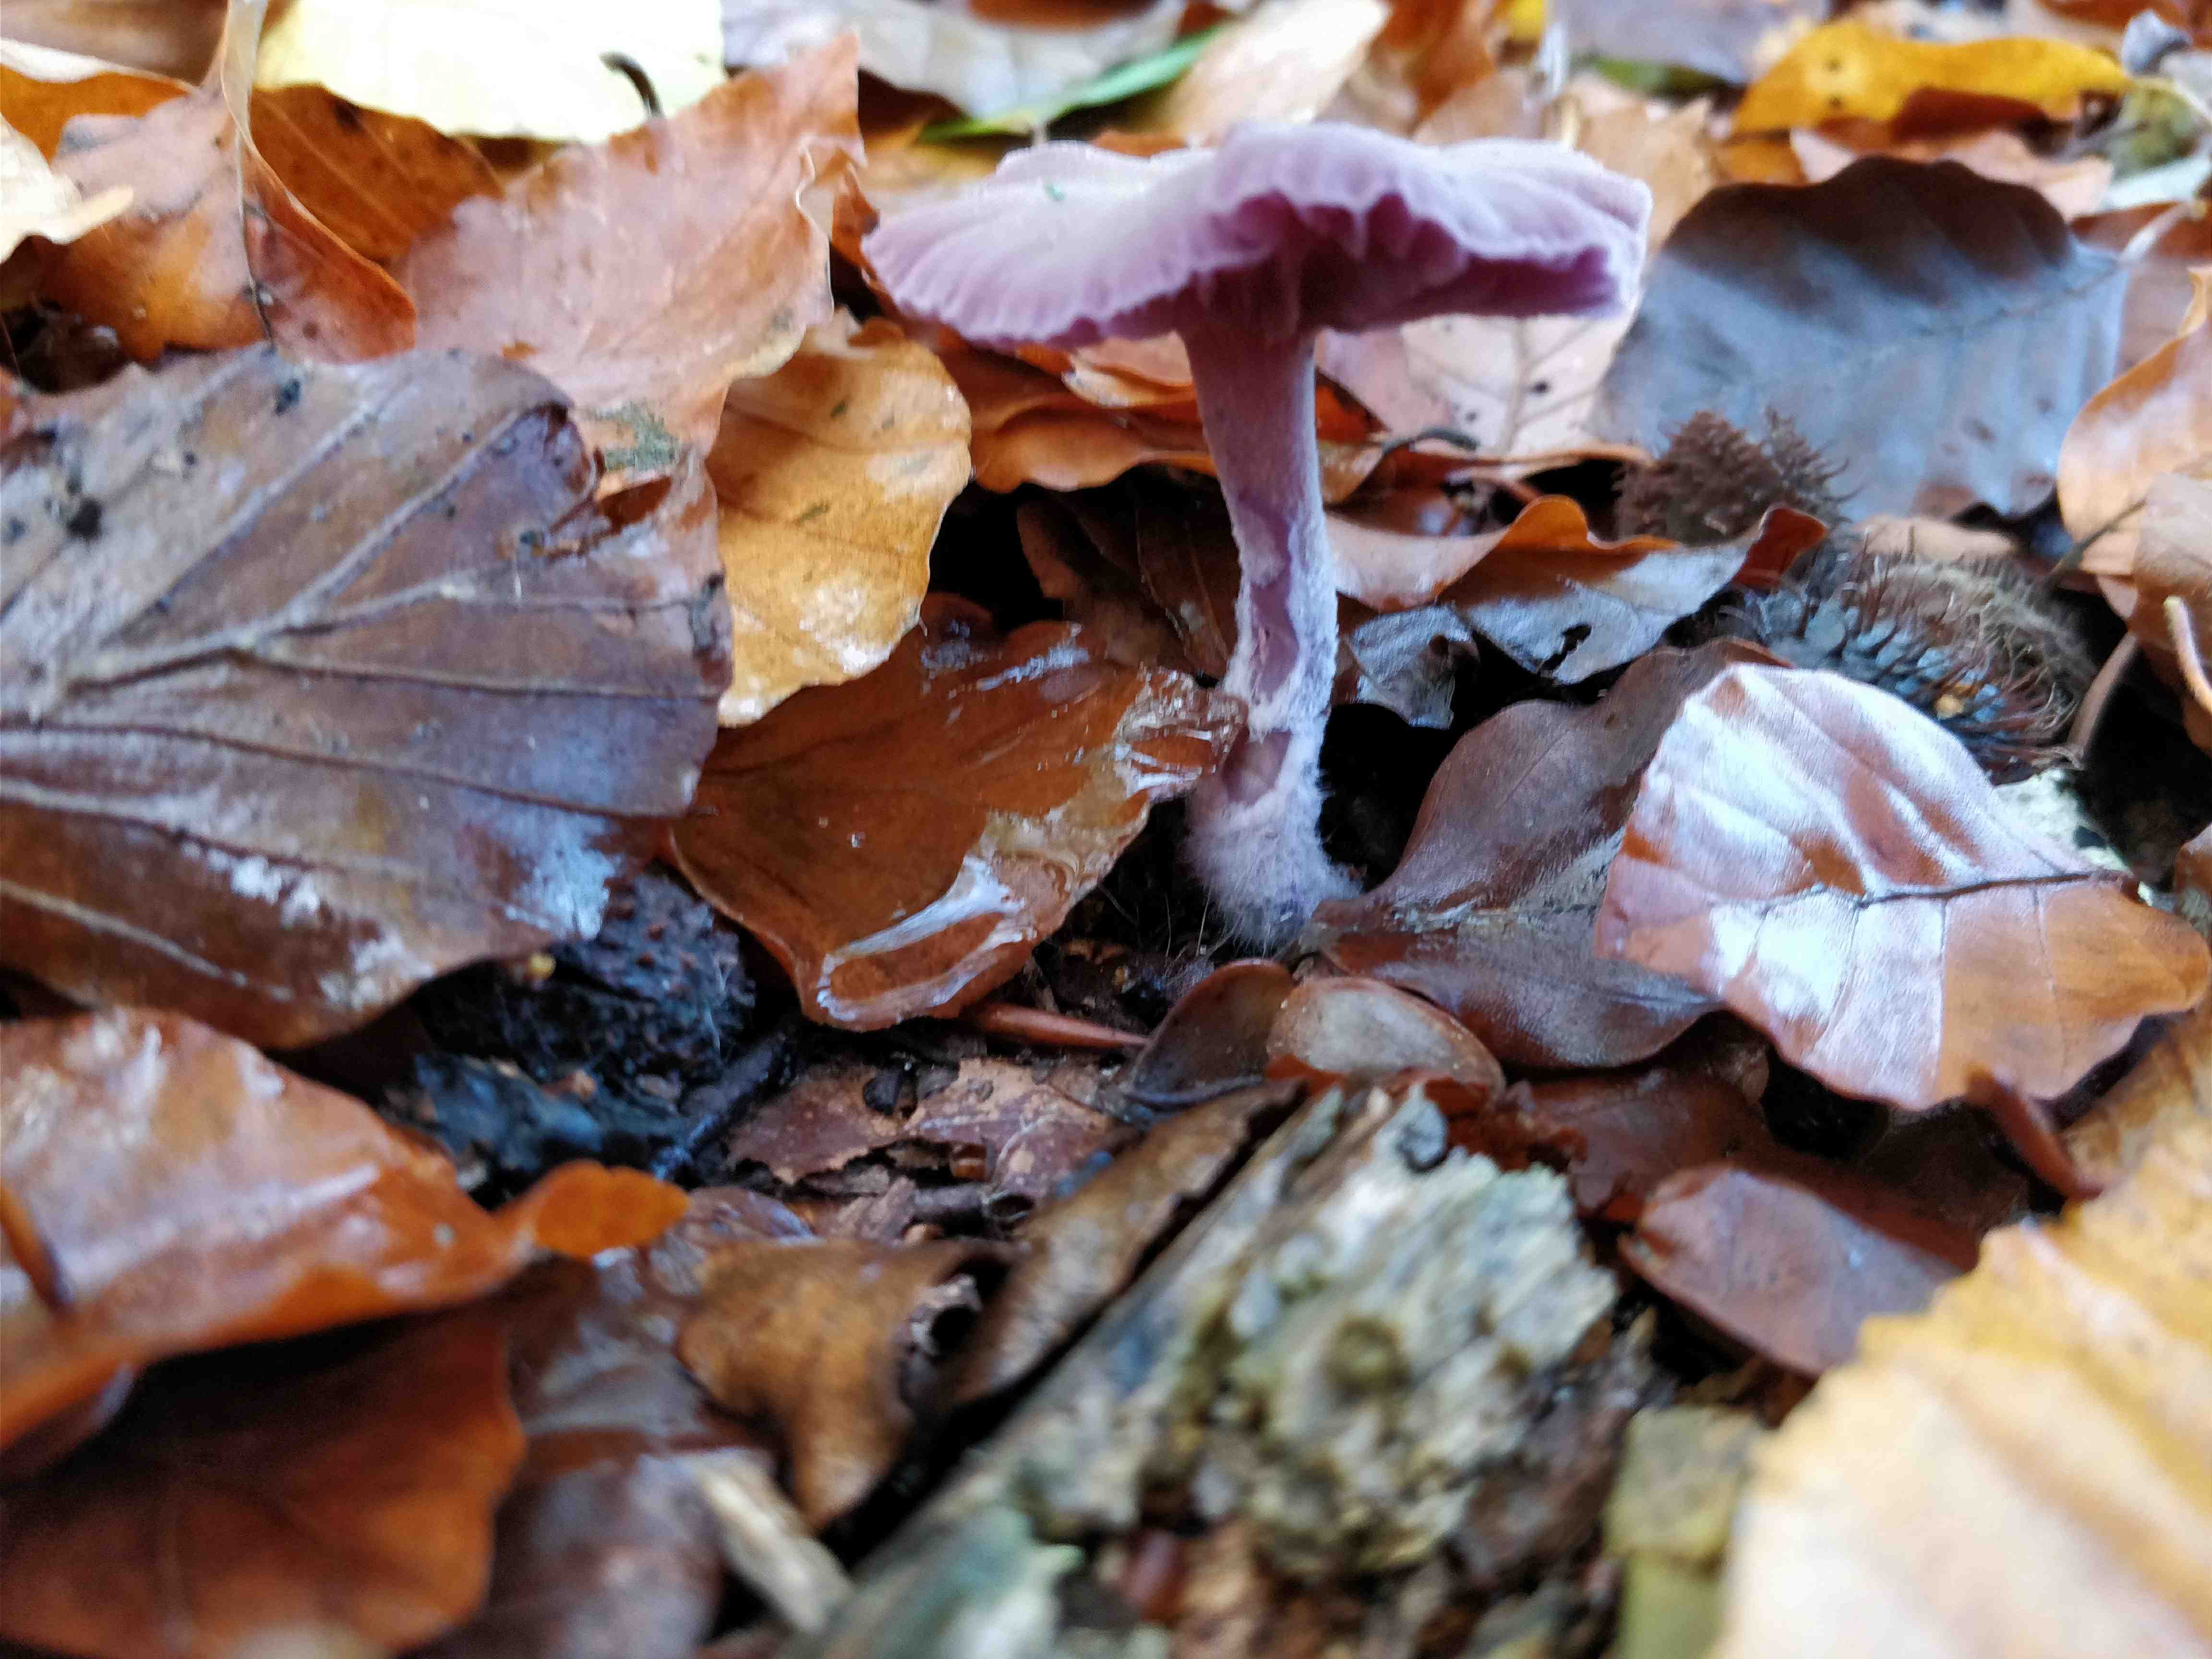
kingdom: Fungi
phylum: Basidiomycota
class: Agaricomycetes
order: Agaricales
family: Hydnangiaceae
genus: Laccaria
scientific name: Laccaria amethystina
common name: violet ametysthat
